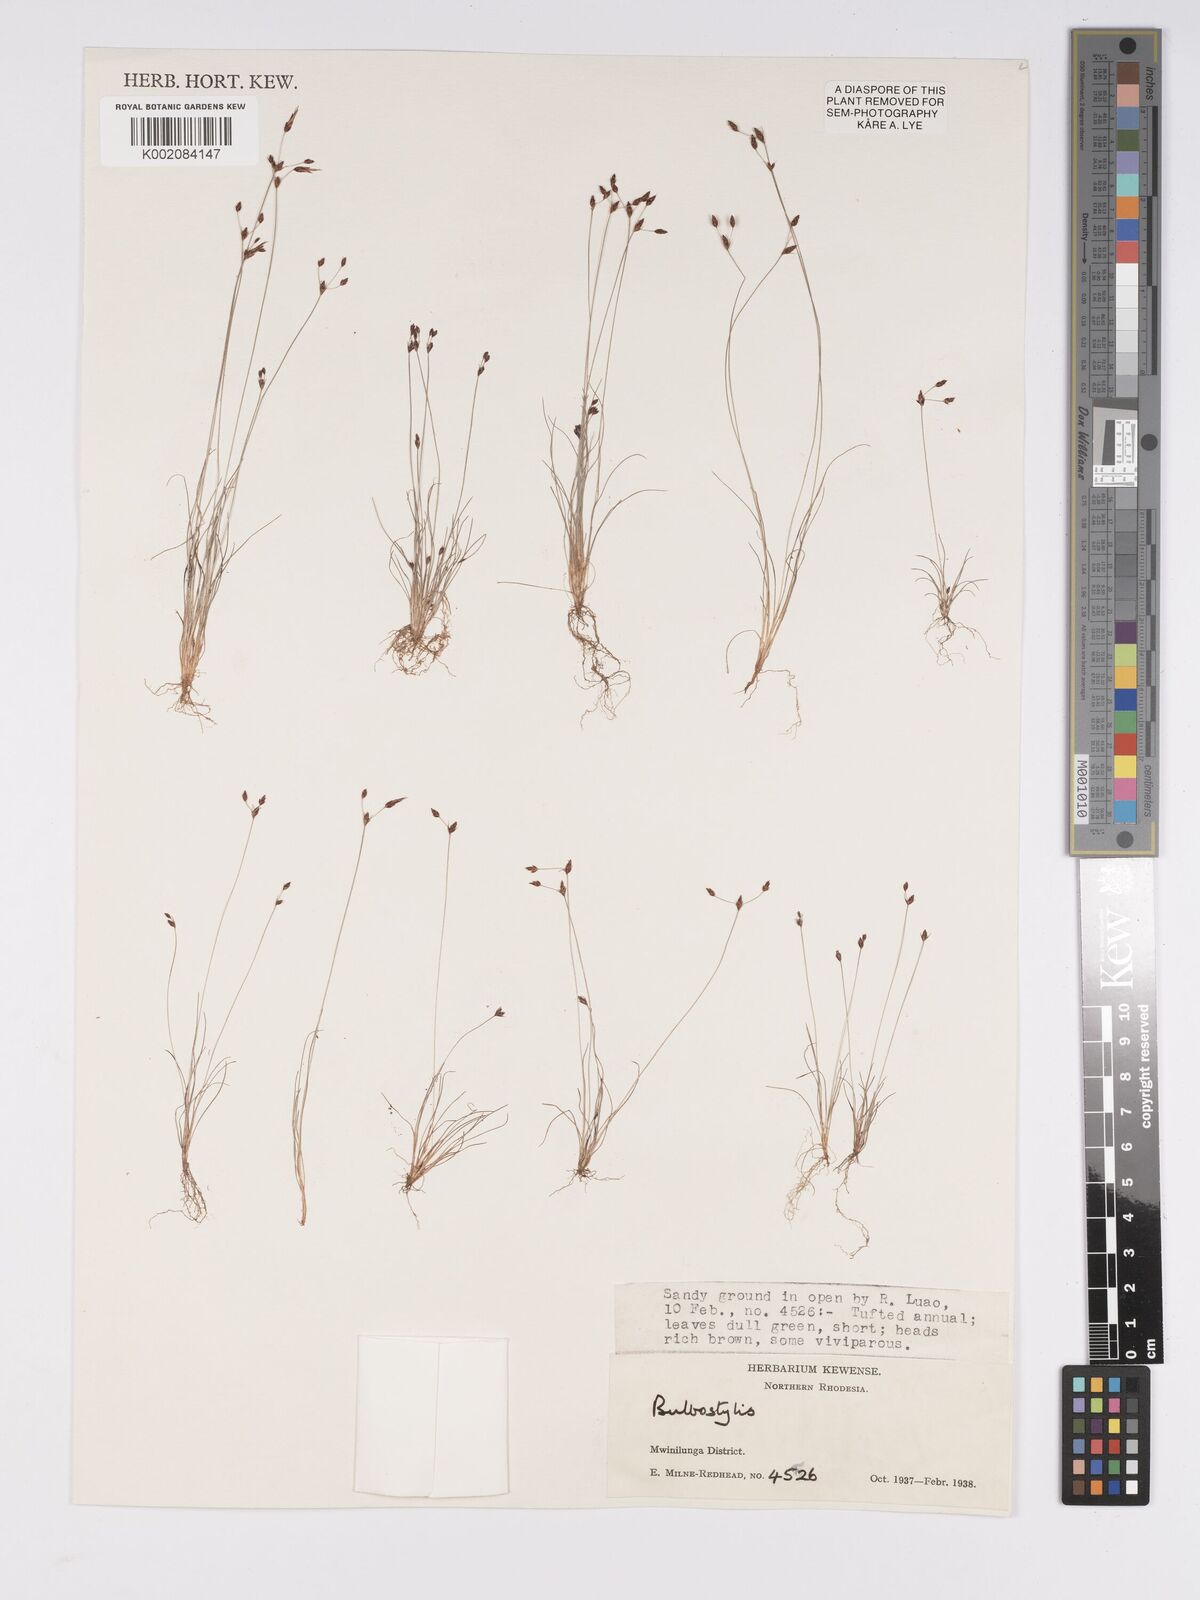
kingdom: Plantae
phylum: Tracheophyta
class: Liliopsida
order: Poales
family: Cyperaceae
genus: Bulbostylis
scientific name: Bulbostylis
